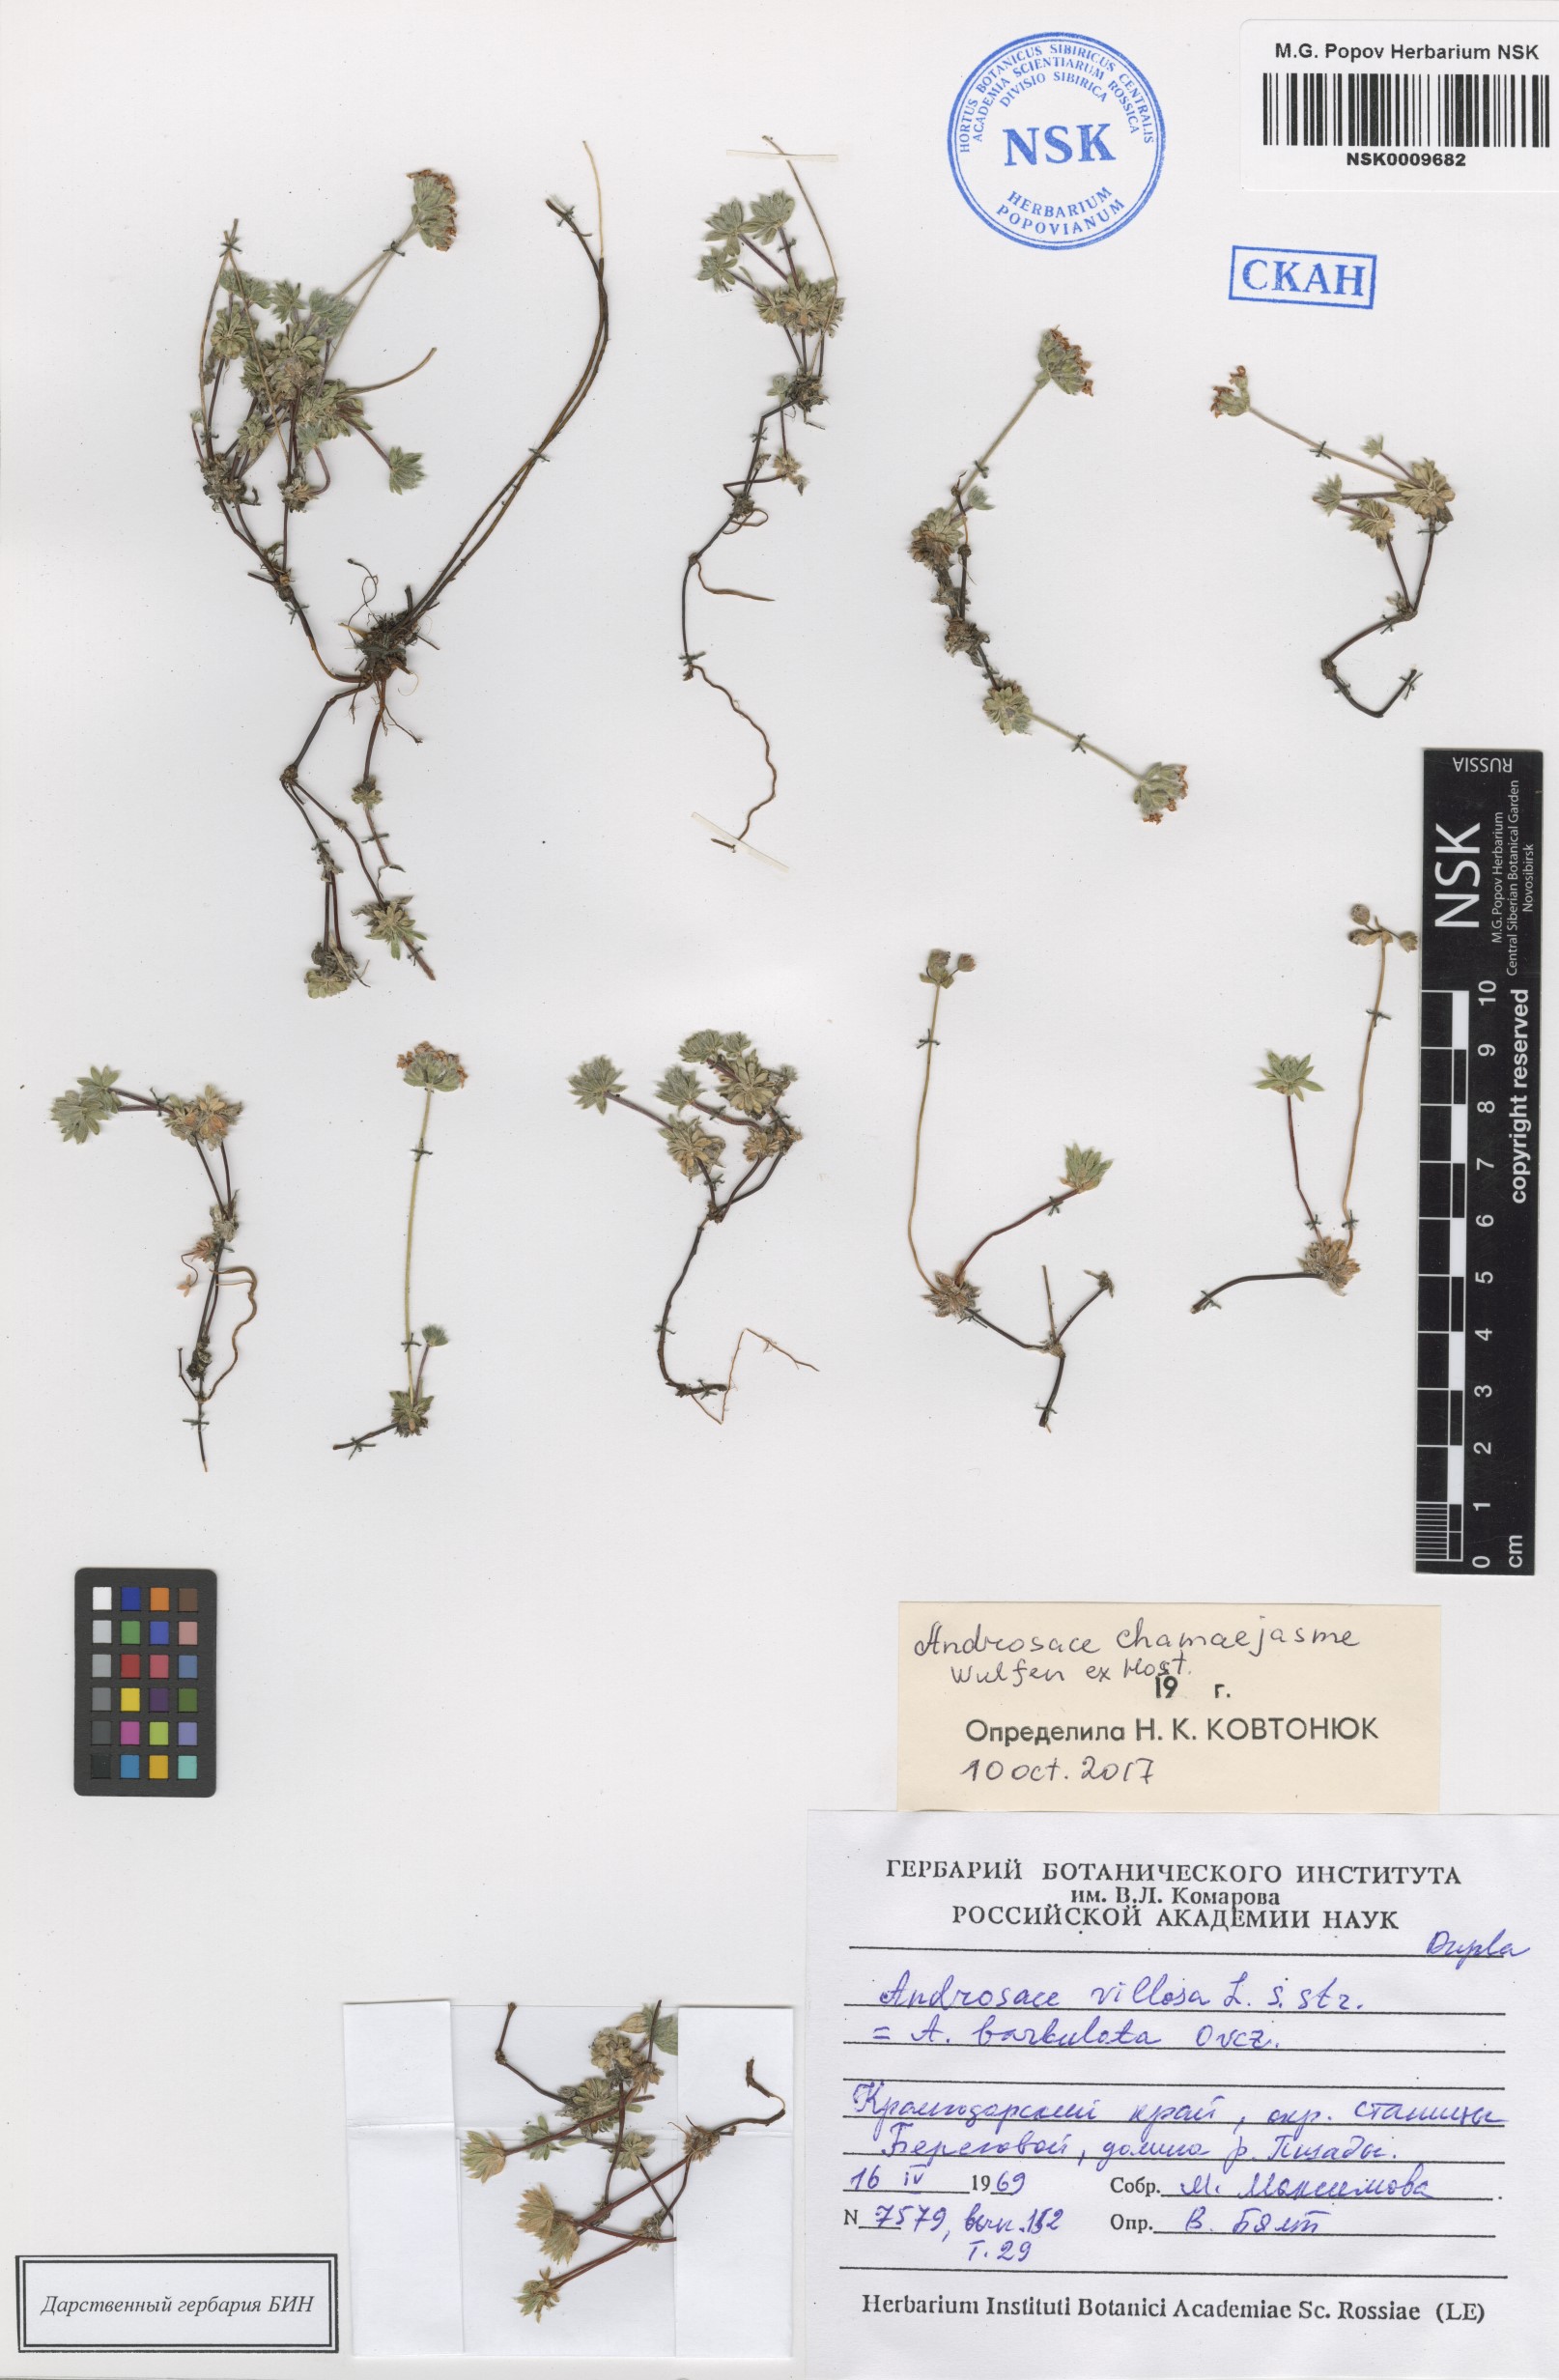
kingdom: Plantae
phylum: Tracheophyta
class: Magnoliopsida
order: Ericales
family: Primulaceae
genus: Androsace
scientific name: Androsace chamaejasme
